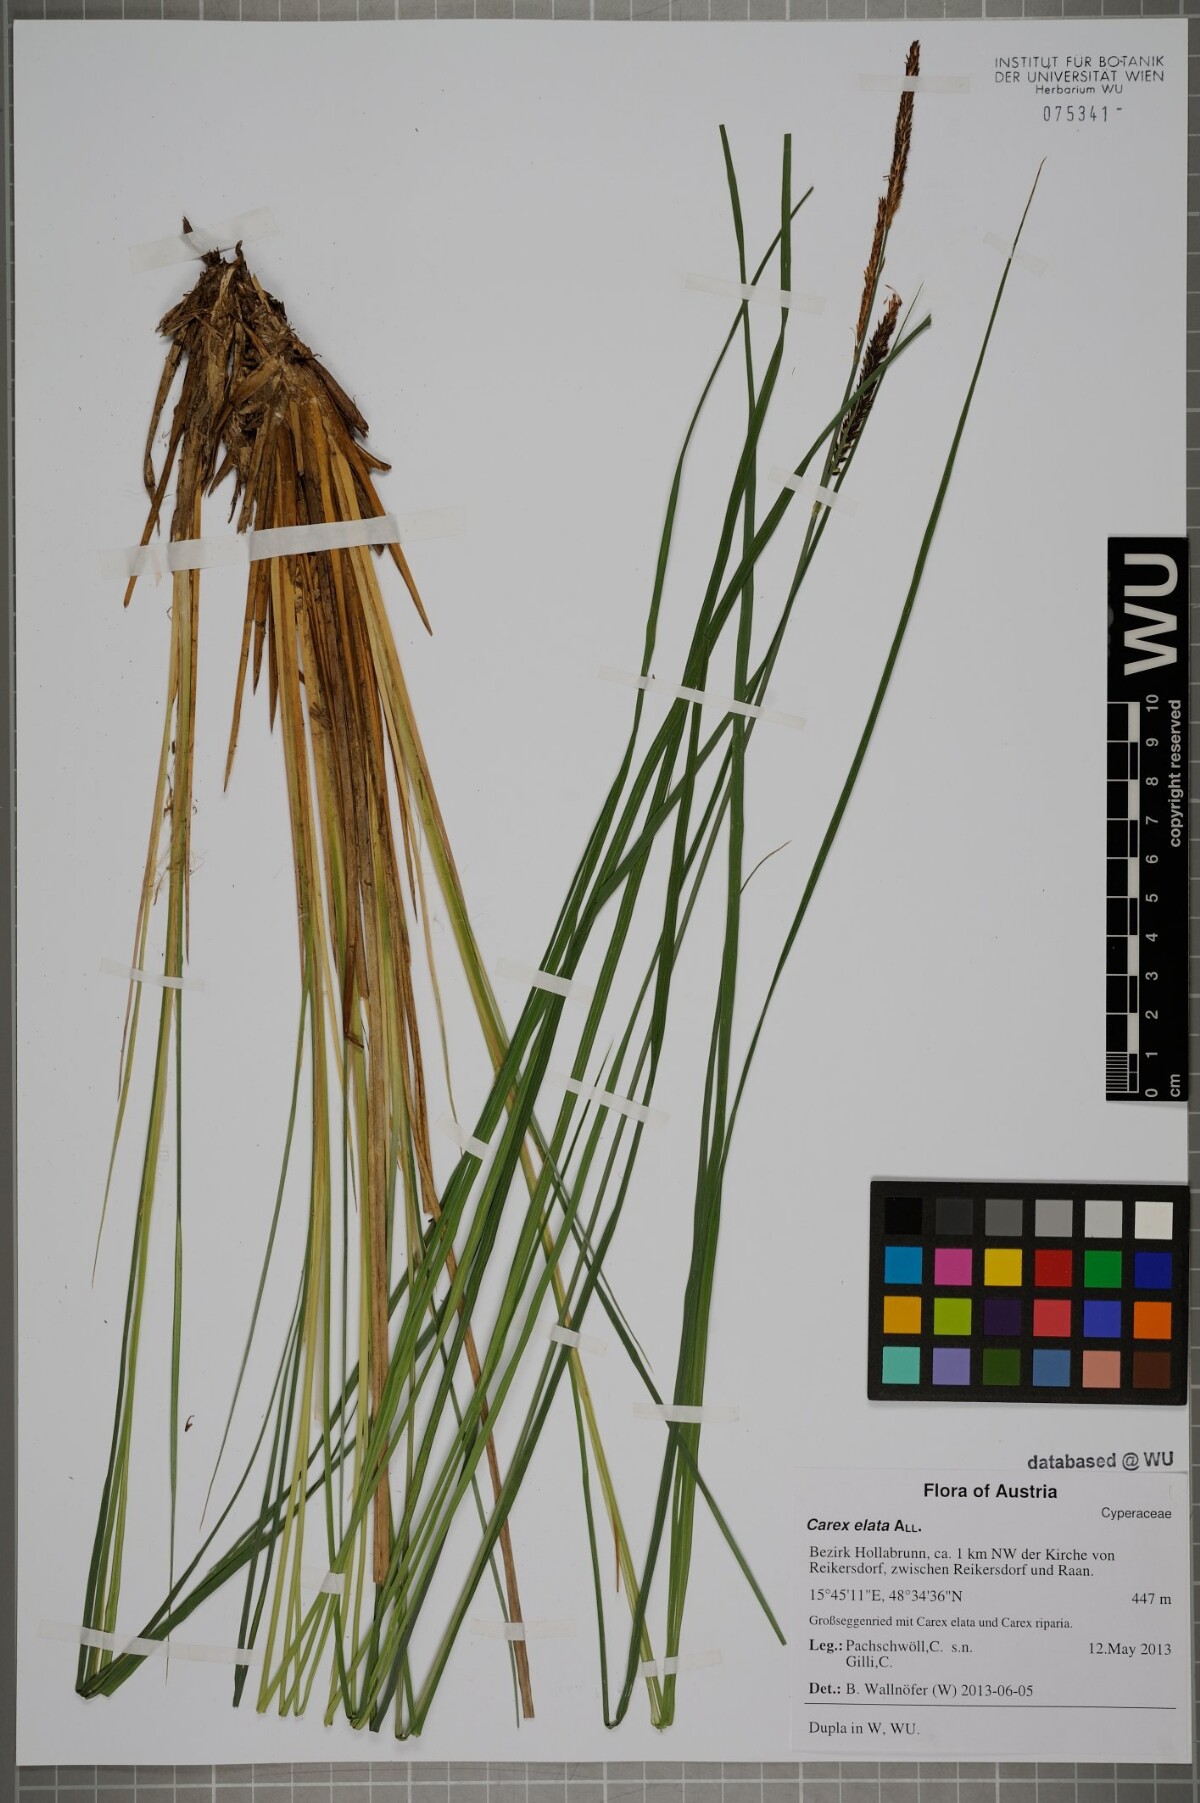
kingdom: Plantae
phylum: Tracheophyta
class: Liliopsida
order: Poales
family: Cyperaceae
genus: Carex
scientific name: Carex elata
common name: Tufted sedge
